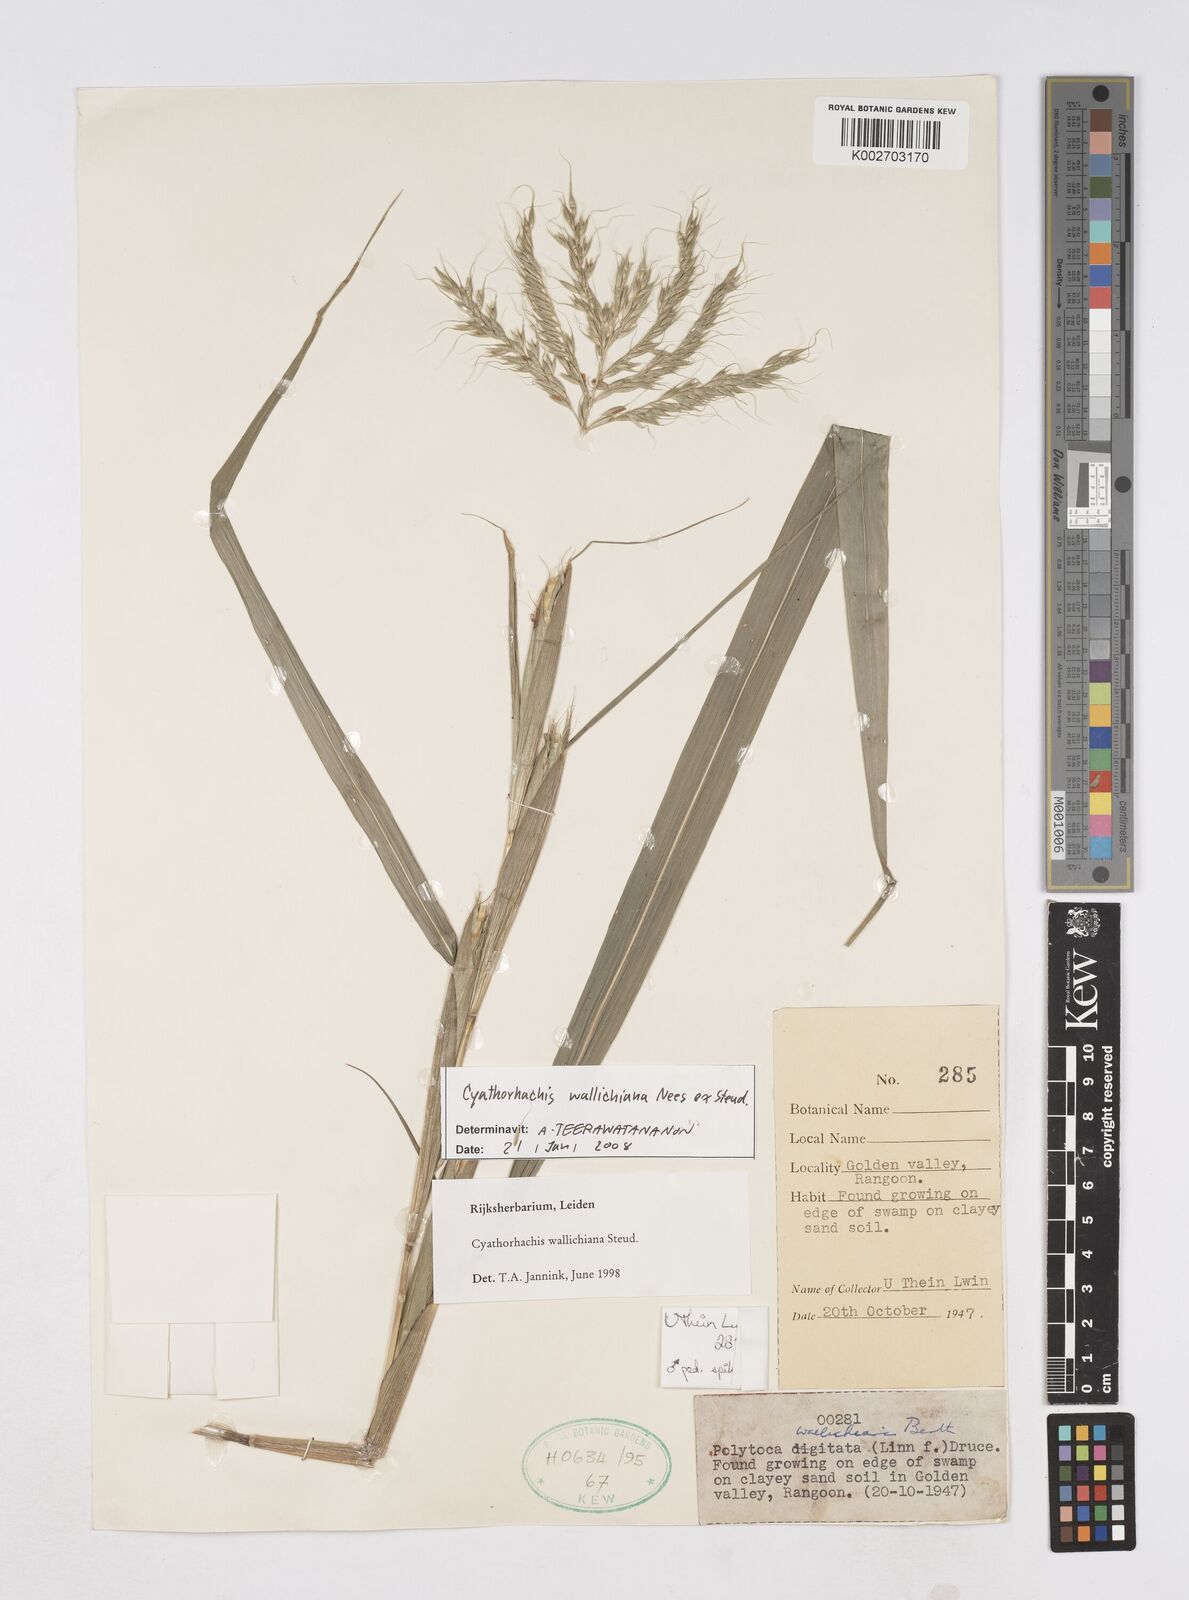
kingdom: Plantae
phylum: Tracheophyta
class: Liliopsida
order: Poales
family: Poaceae
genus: Polytoca
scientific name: Polytoca wallichiana
